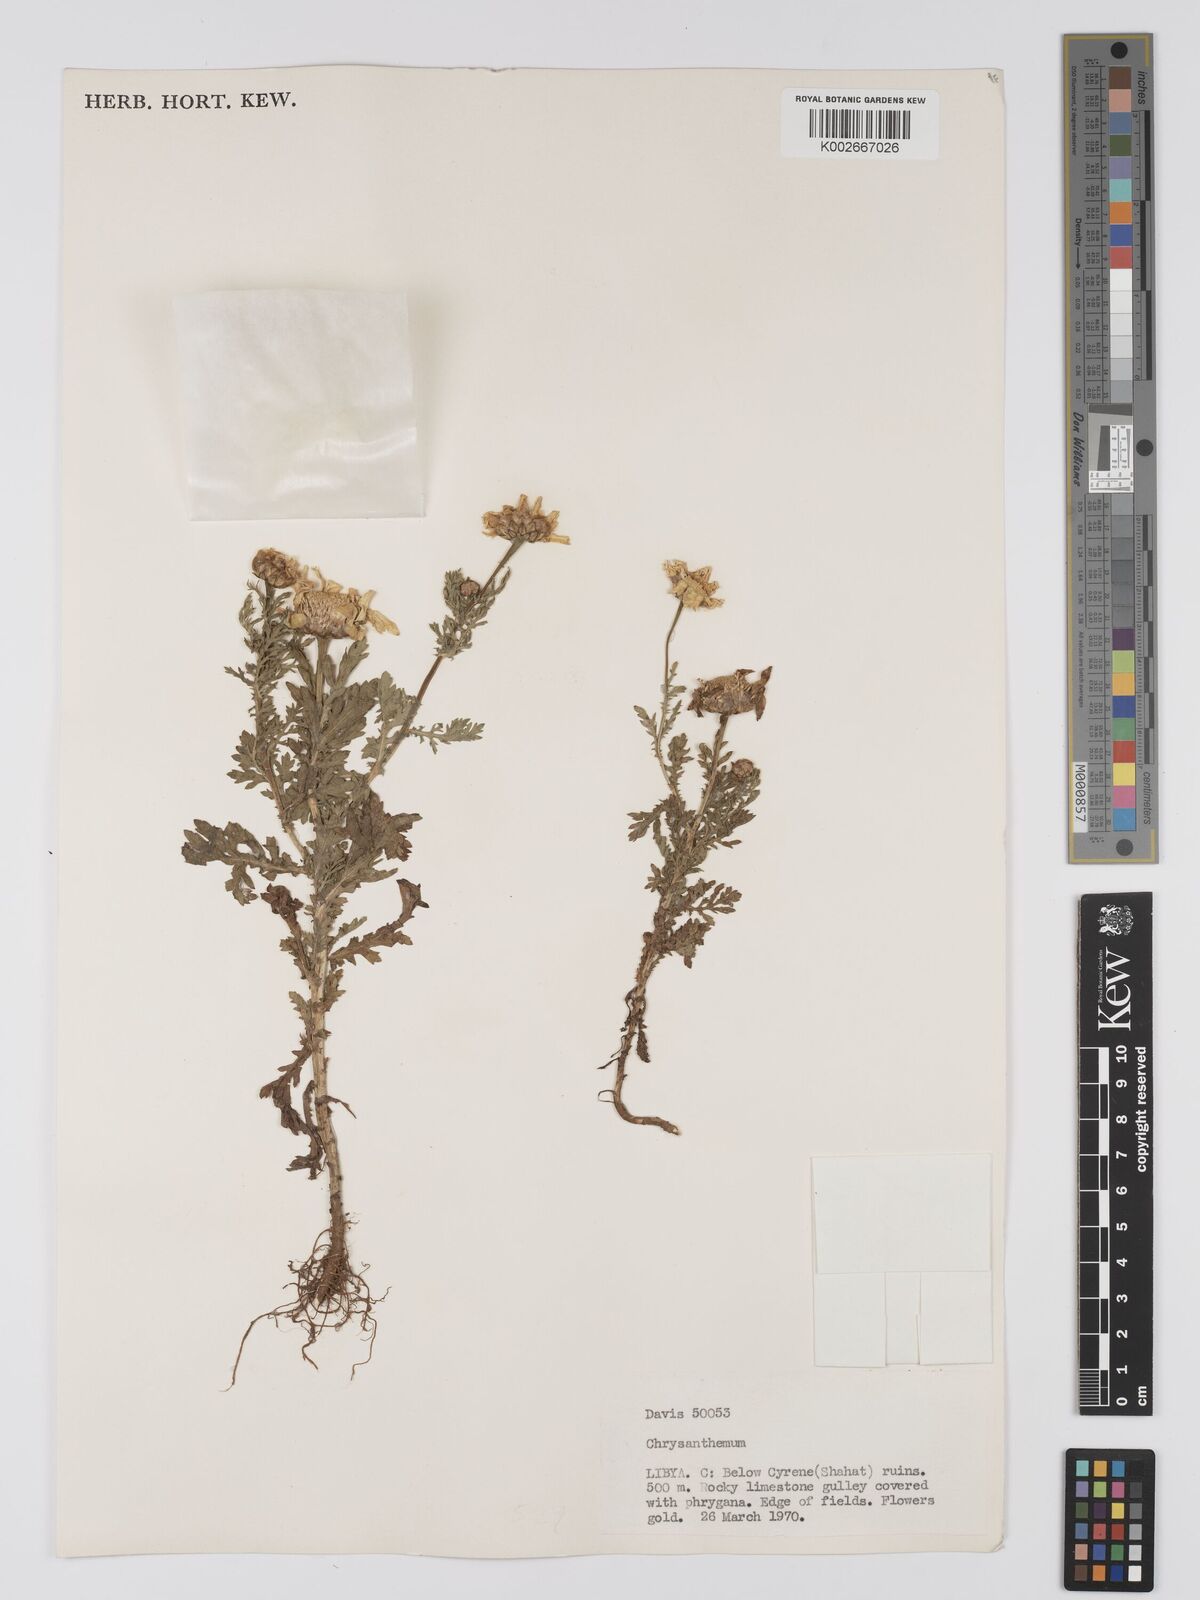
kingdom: Plantae
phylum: Tracheophyta
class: Magnoliopsida
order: Asterales
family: Asteraceae
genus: Glebionis
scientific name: Glebionis coronaria
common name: Crowndaisy
